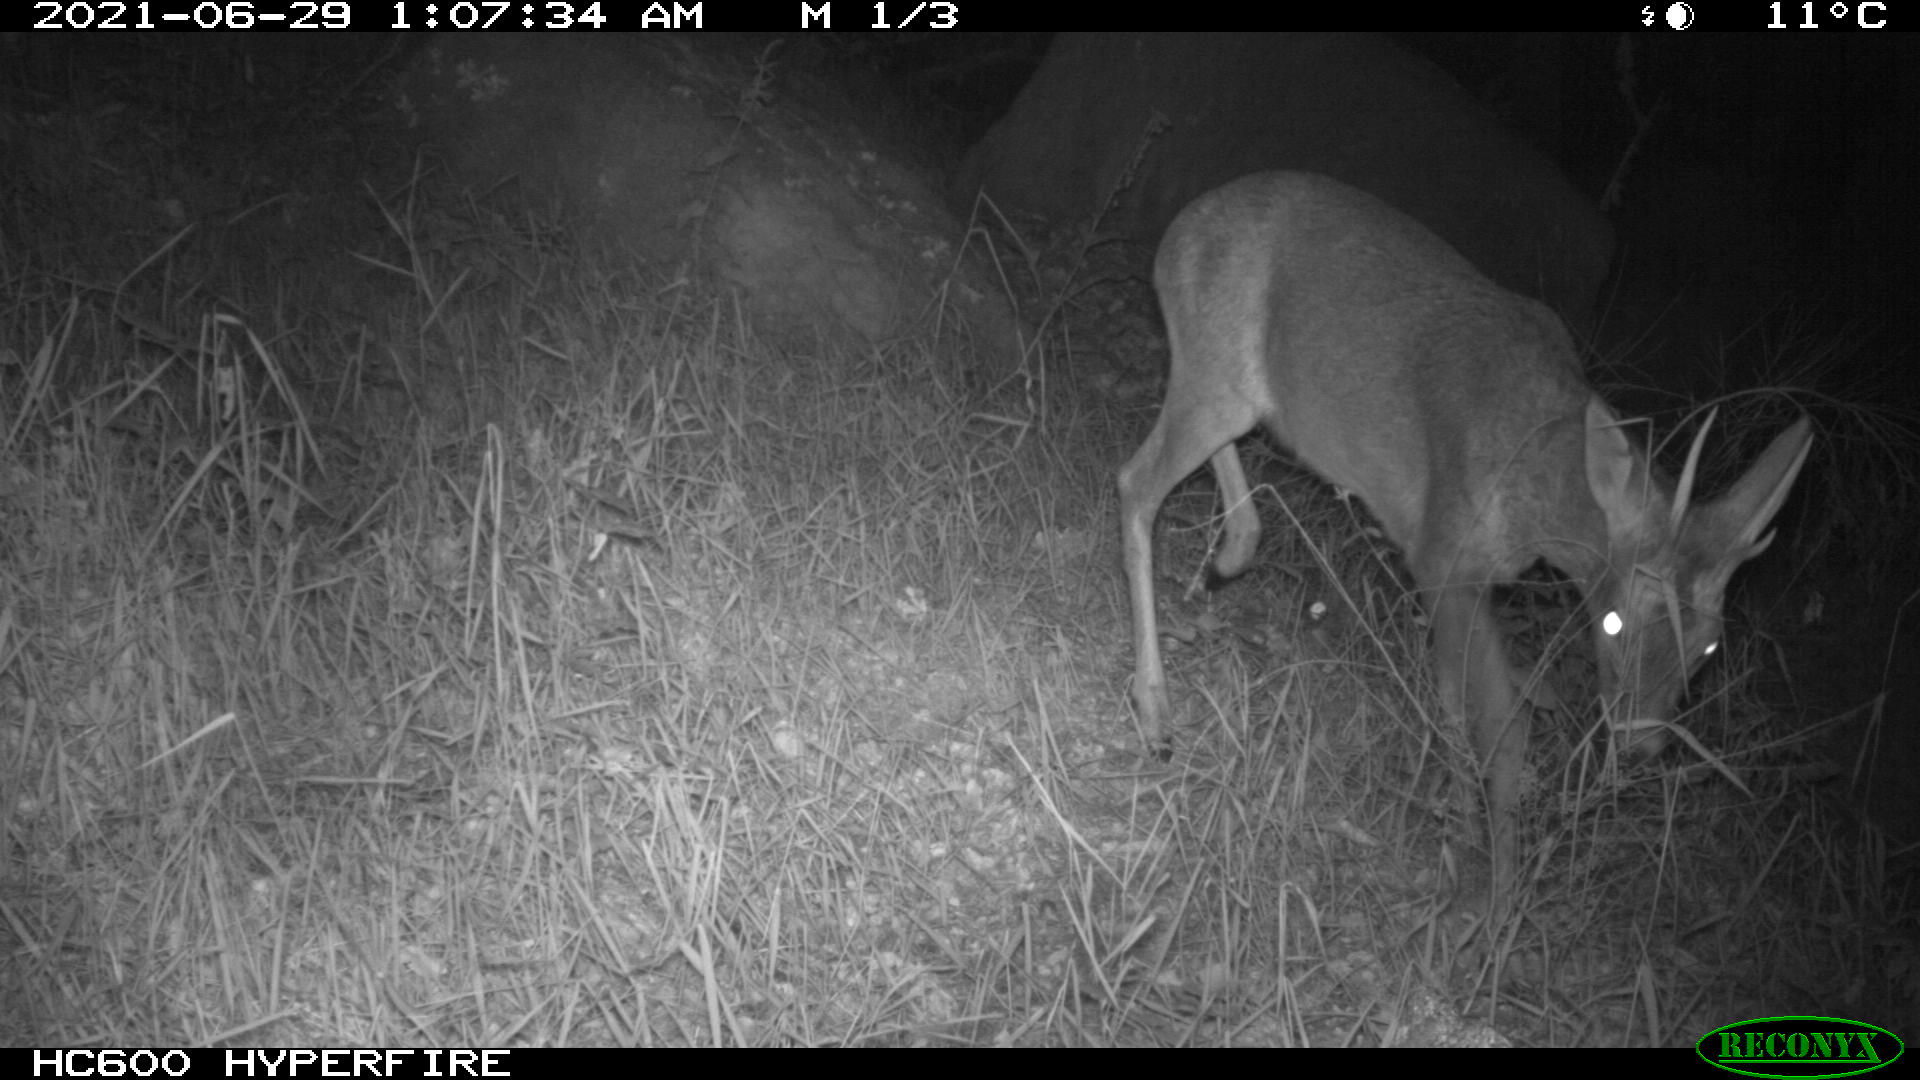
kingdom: Animalia
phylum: Chordata
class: Mammalia
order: Artiodactyla
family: Cervidae
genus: Capreolus
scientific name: Capreolus capreolus
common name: Western roe deer
